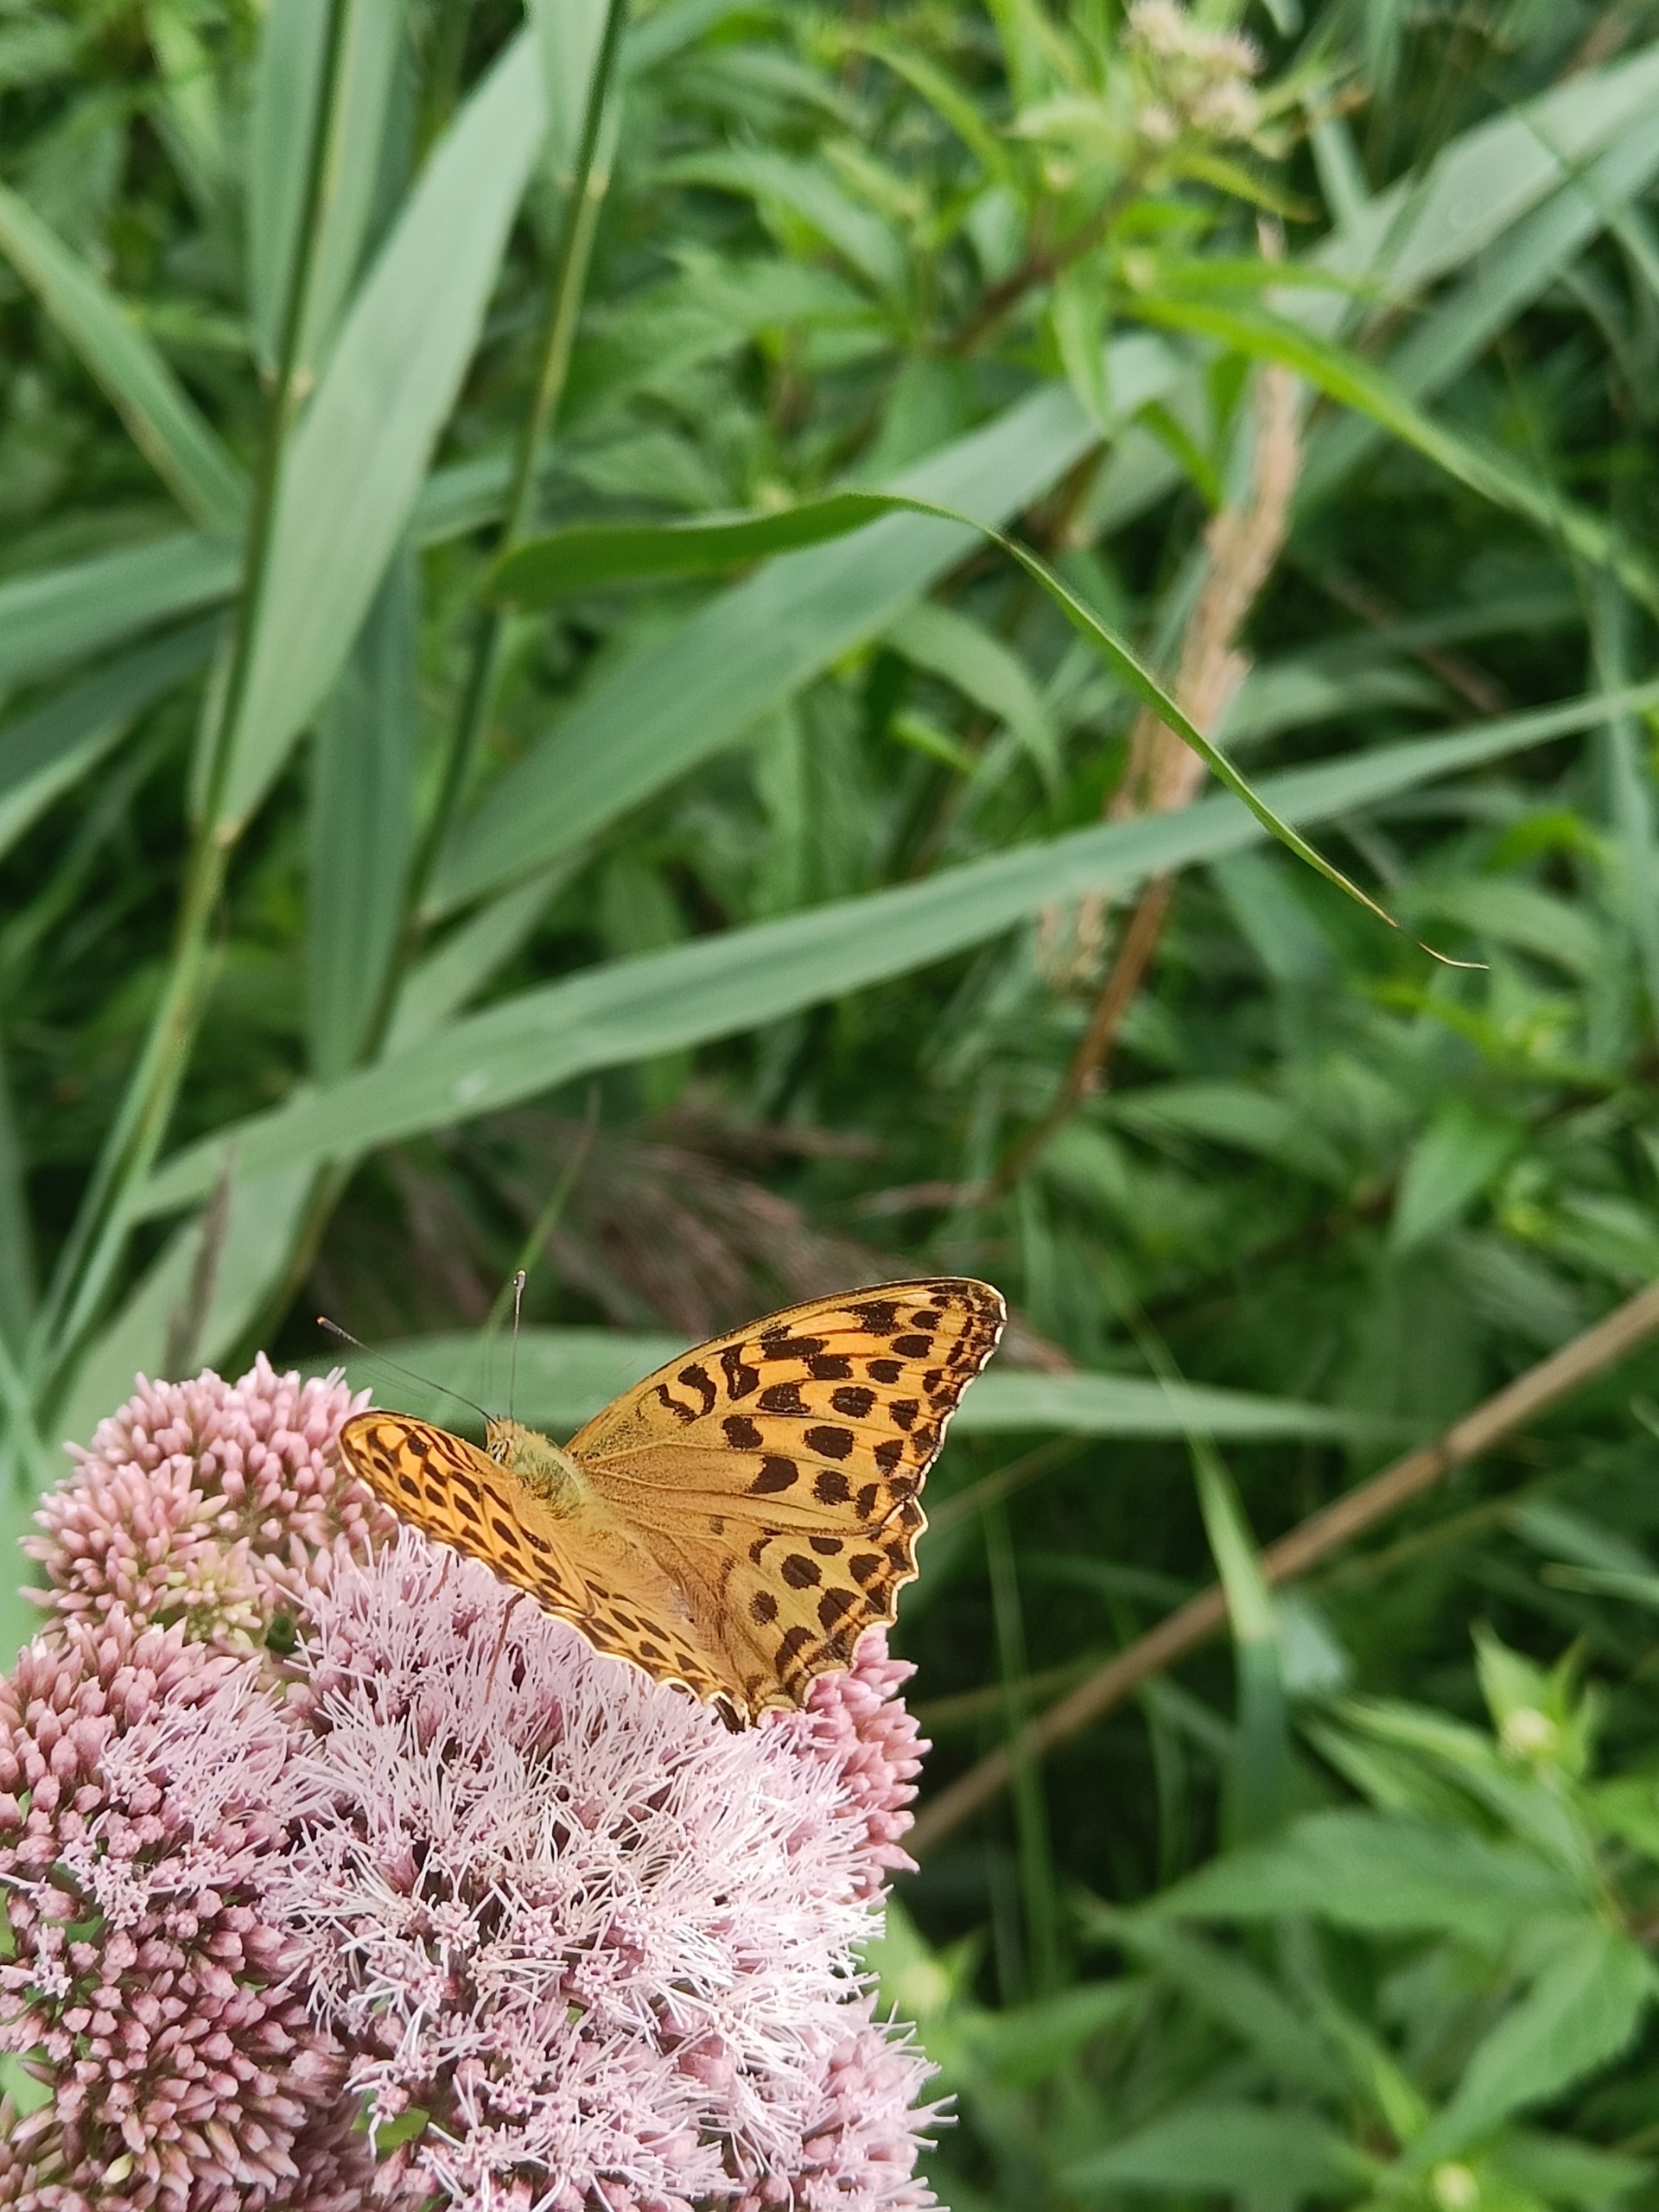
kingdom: Animalia
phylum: Arthropoda
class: Insecta
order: Lepidoptera
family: Nymphalidae
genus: Argynnis
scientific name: Argynnis paphia
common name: Kejserkåbe
